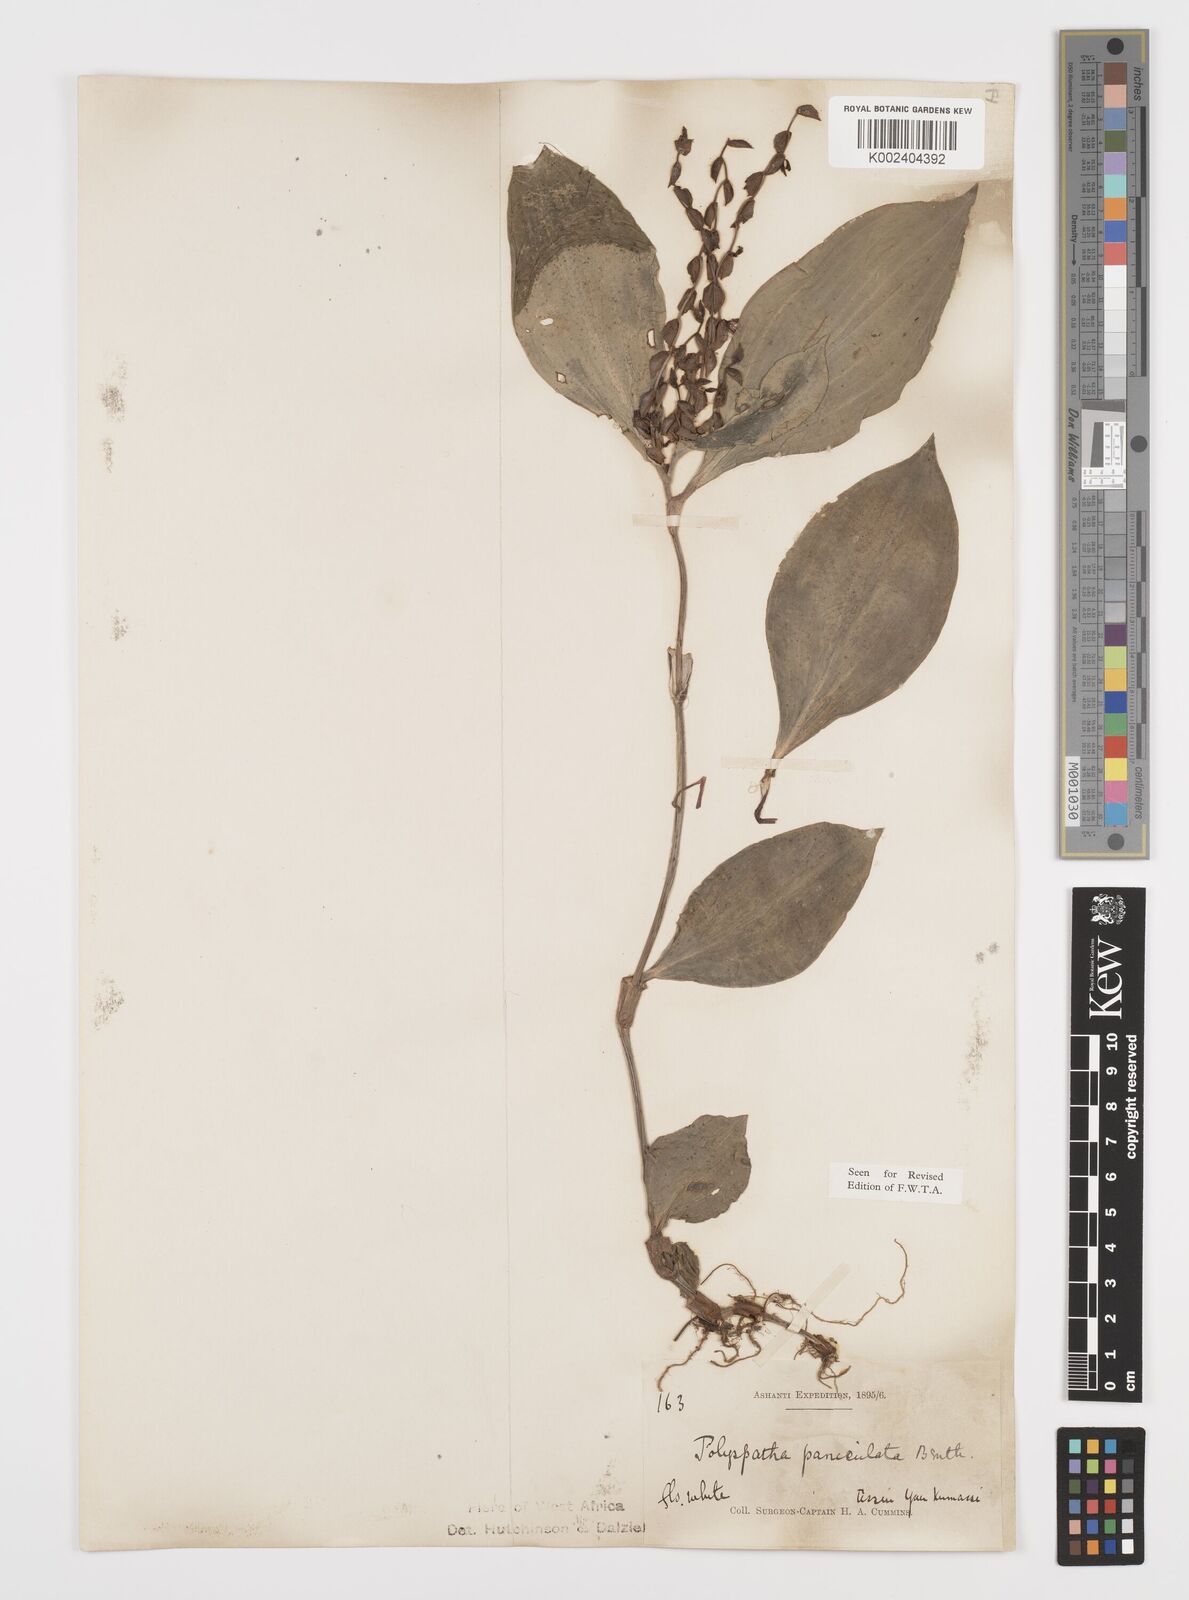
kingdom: Plantae
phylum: Tracheophyta
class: Liliopsida
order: Commelinales
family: Commelinaceae
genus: Polyspatha
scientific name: Polyspatha paniculata
